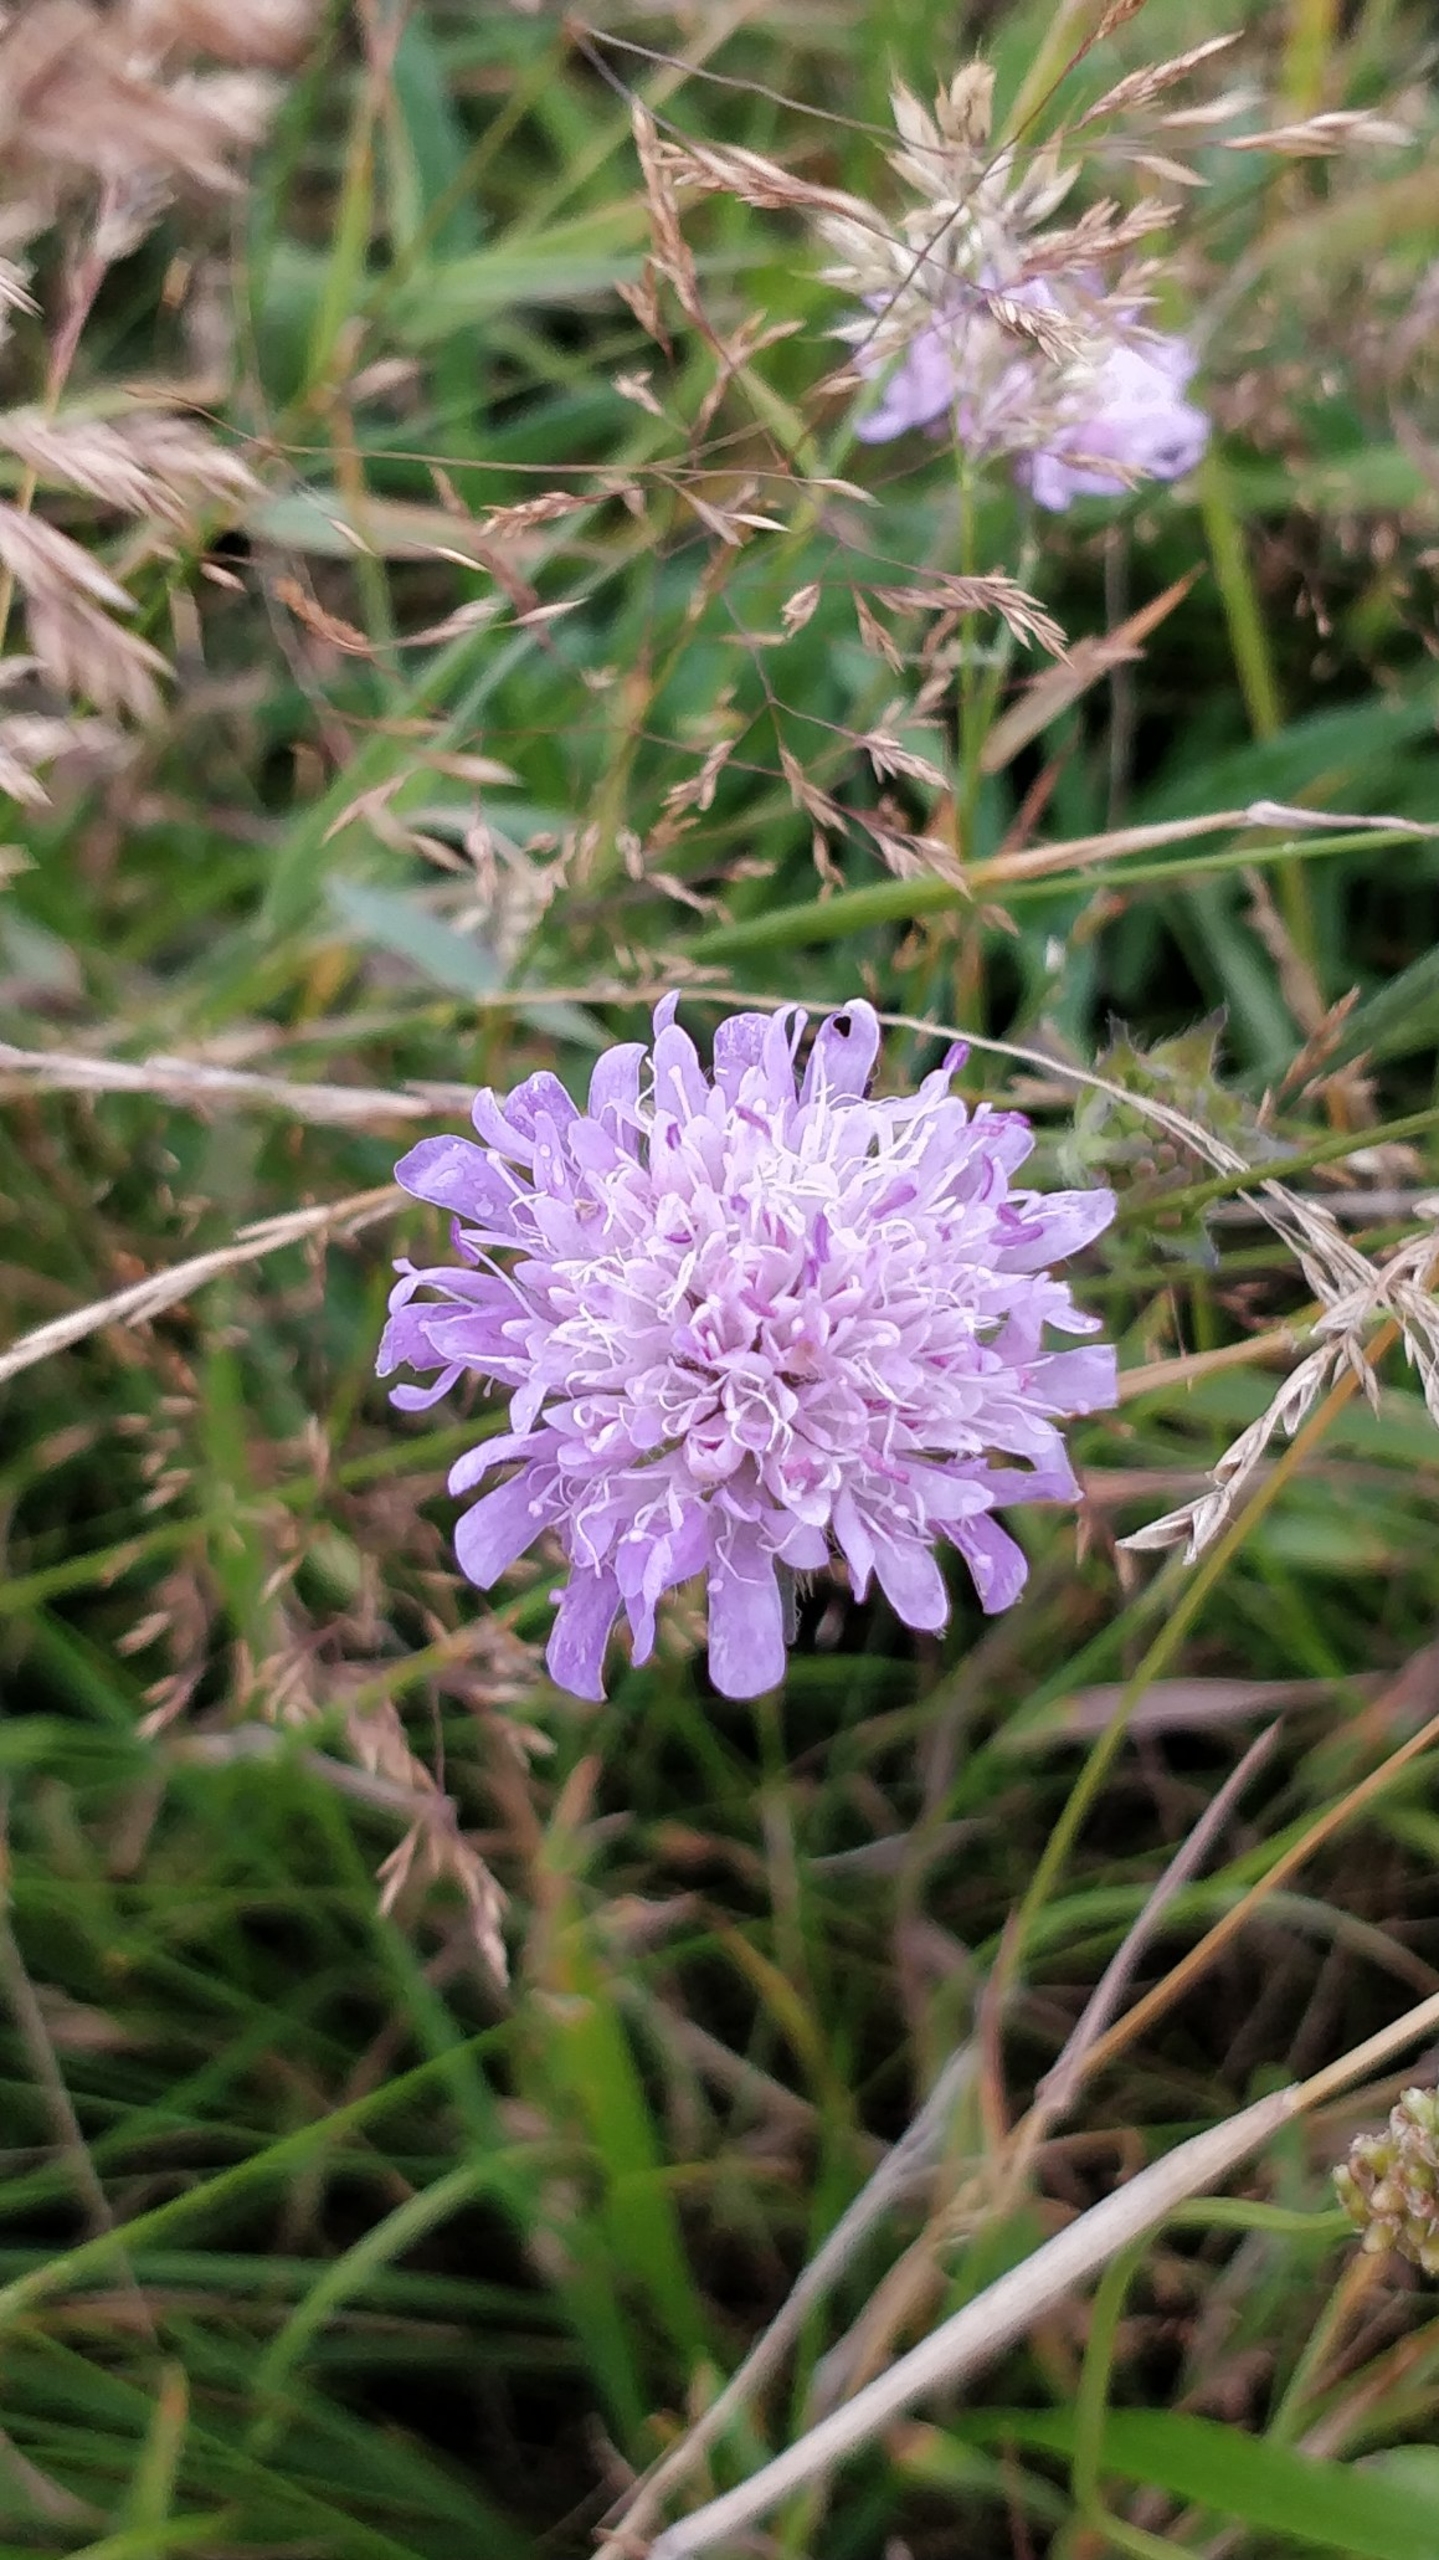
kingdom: Plantae
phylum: Tracheophyta
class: Magnoliopsida
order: Dipsacales
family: Caprifoliaceae
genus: Knautia
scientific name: Knautia arvensis
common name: Blåhat
